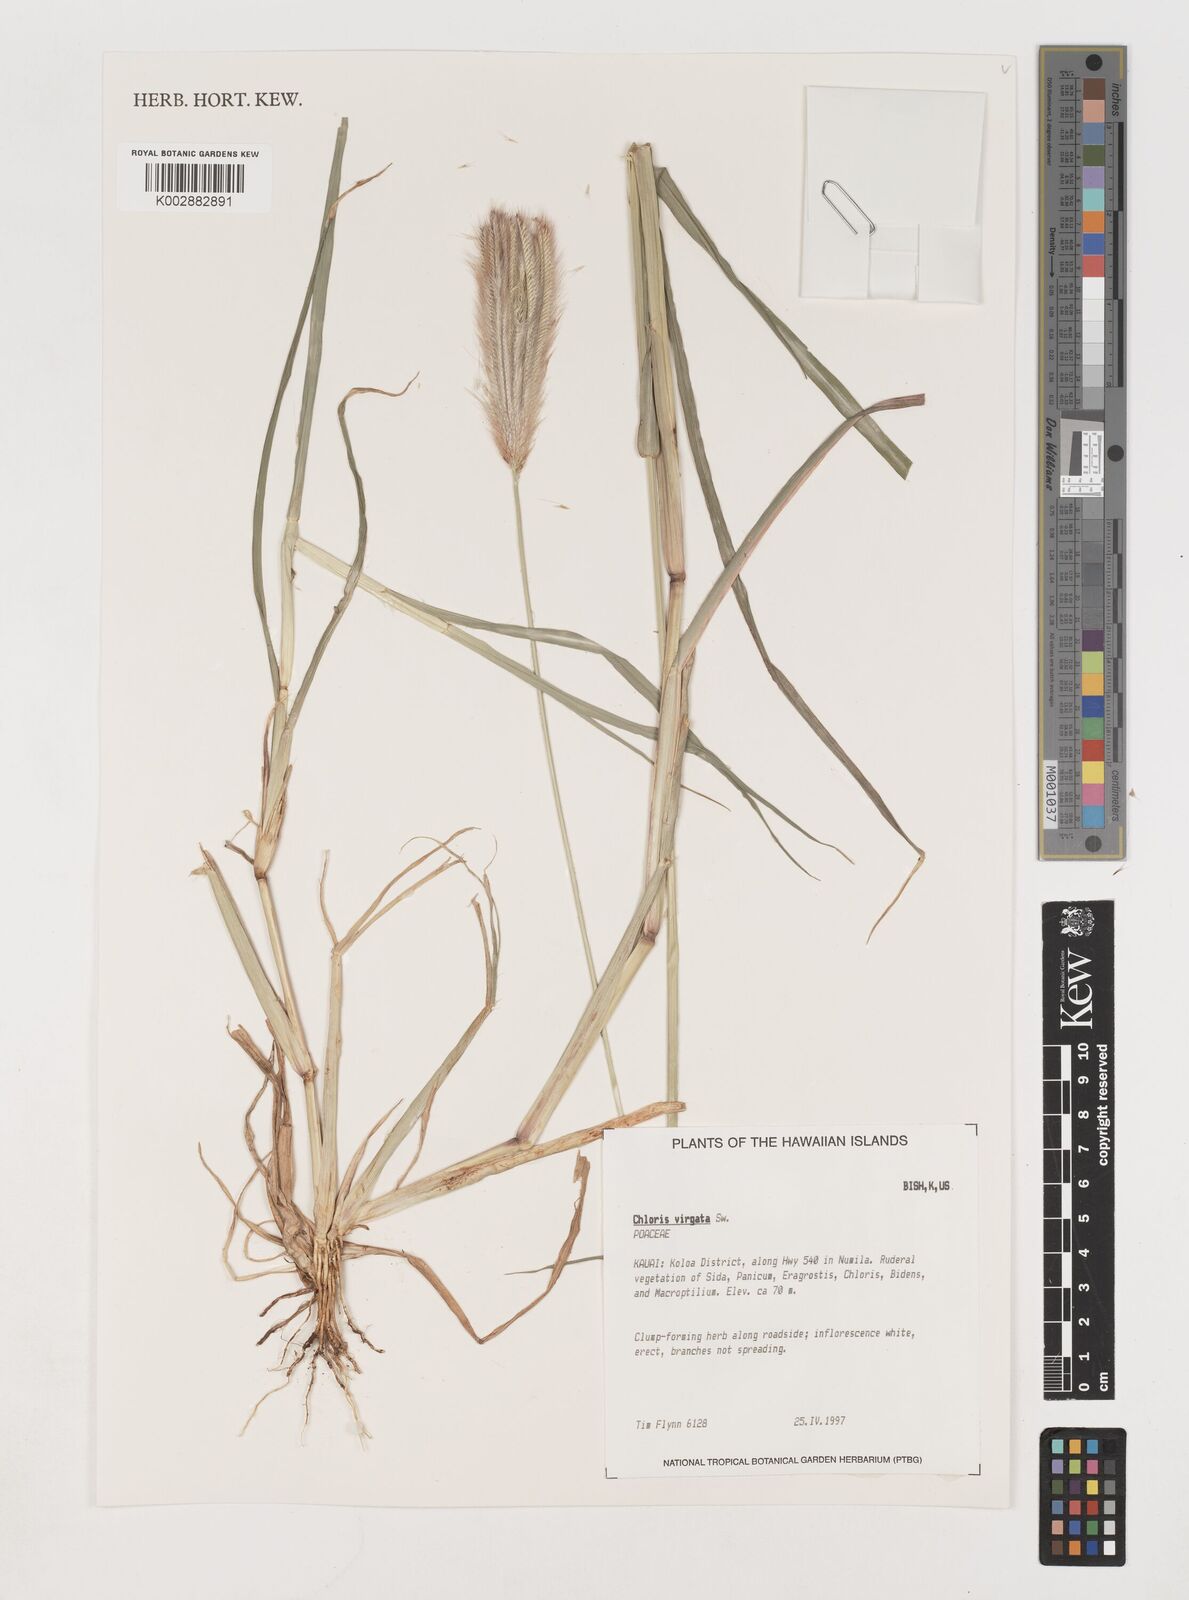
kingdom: Plantae
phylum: Tracheophyta
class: Liliopsida
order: Poales
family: Poaceae
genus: Chloris
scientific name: Chloris virgata
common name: Feathery rhodes-grass
